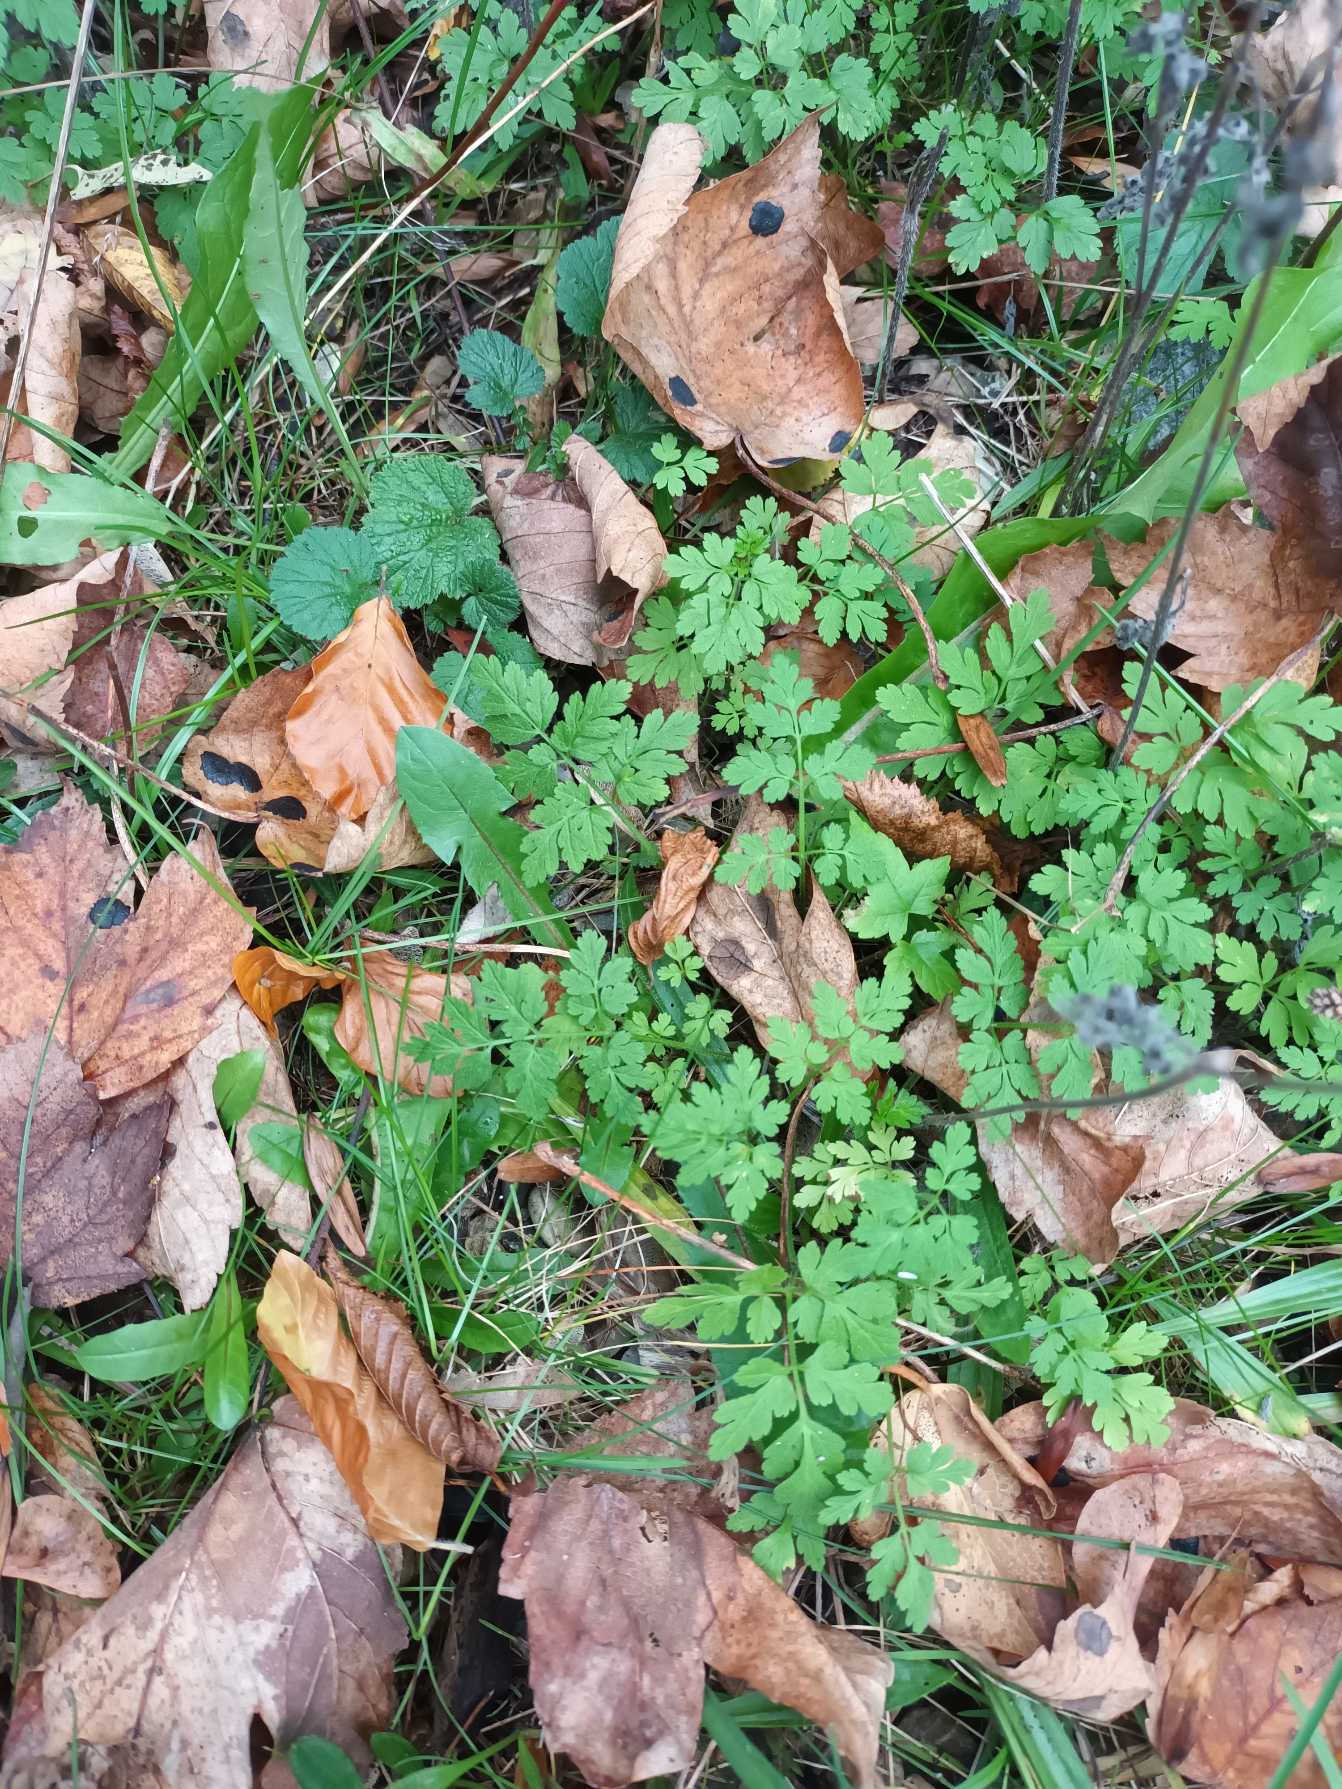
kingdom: Plantae
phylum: Tracheophyta
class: Magnoliopsida
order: Apiales
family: Apiaceae
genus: Chaerophyllum
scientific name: Chaerophyllum temulum
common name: Almindelig hulsvøb
